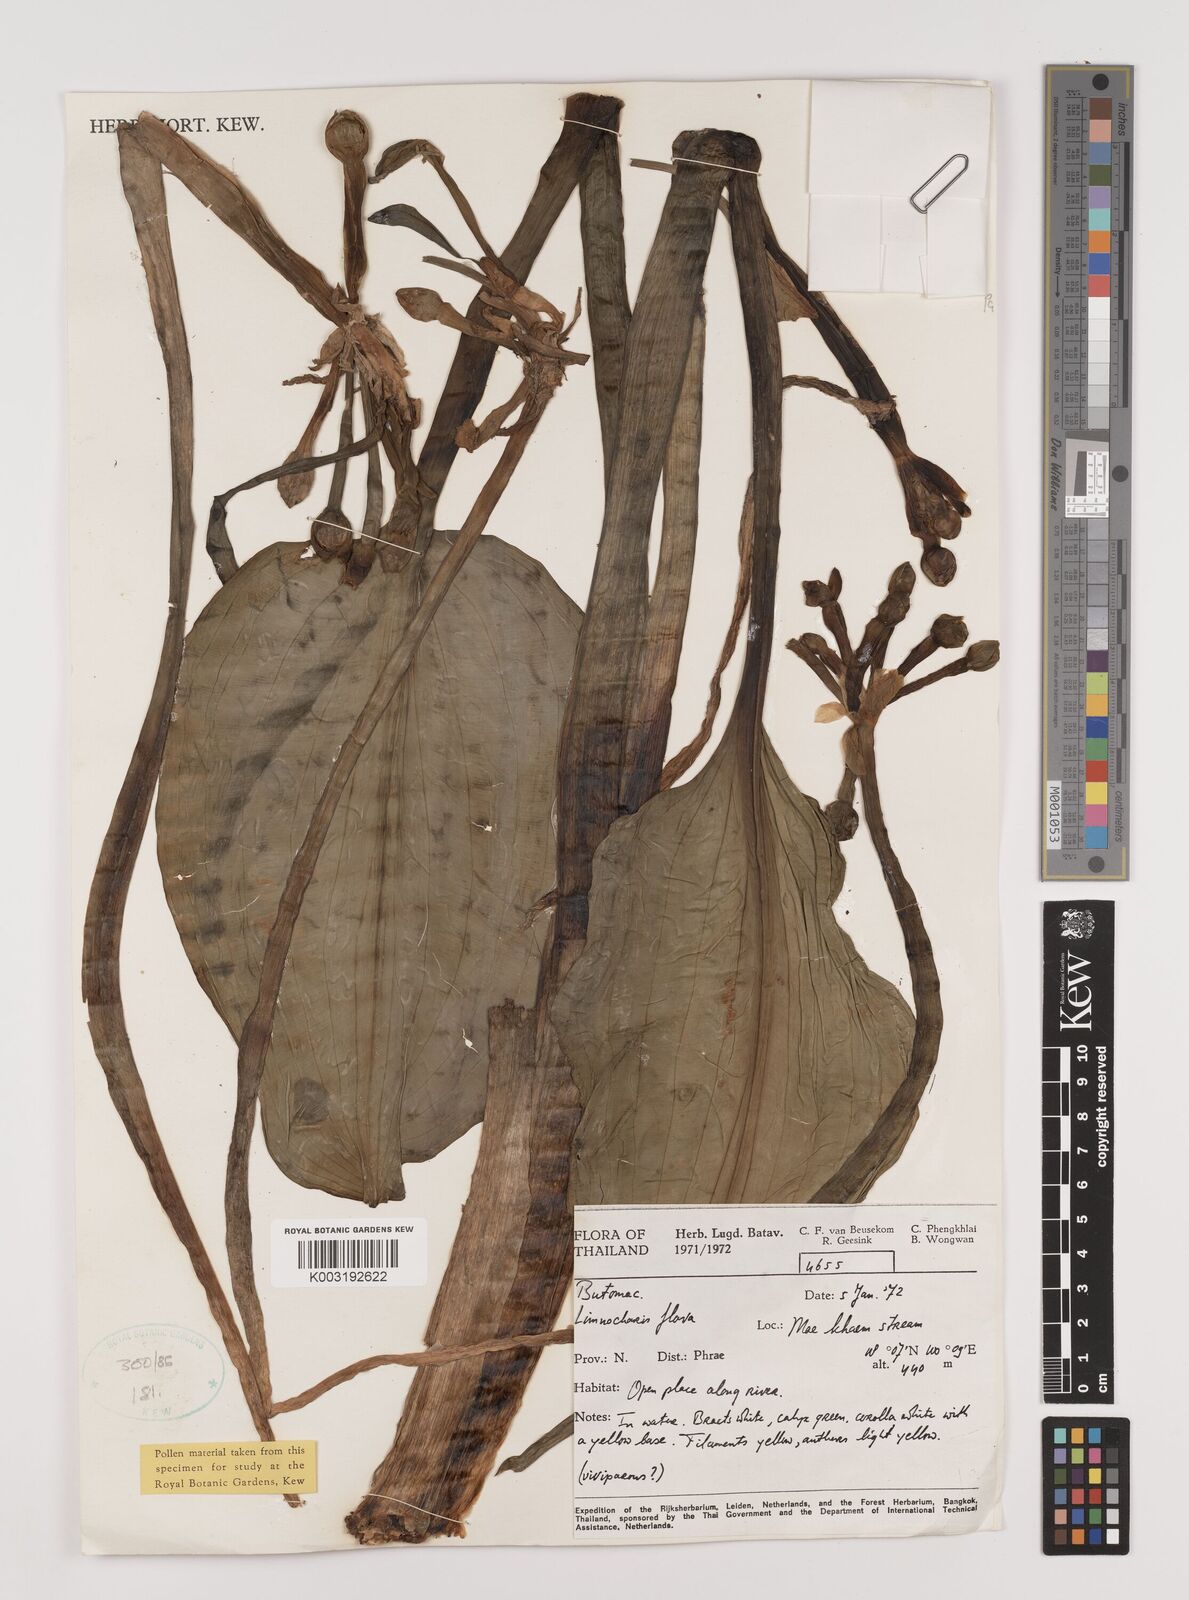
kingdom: Plantae
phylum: Tracheophyta
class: Liliopsida
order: Alismatales
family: Alismataceae
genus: Limnocharis
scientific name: Limnocharis flava
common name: Sawah-flower-rush
